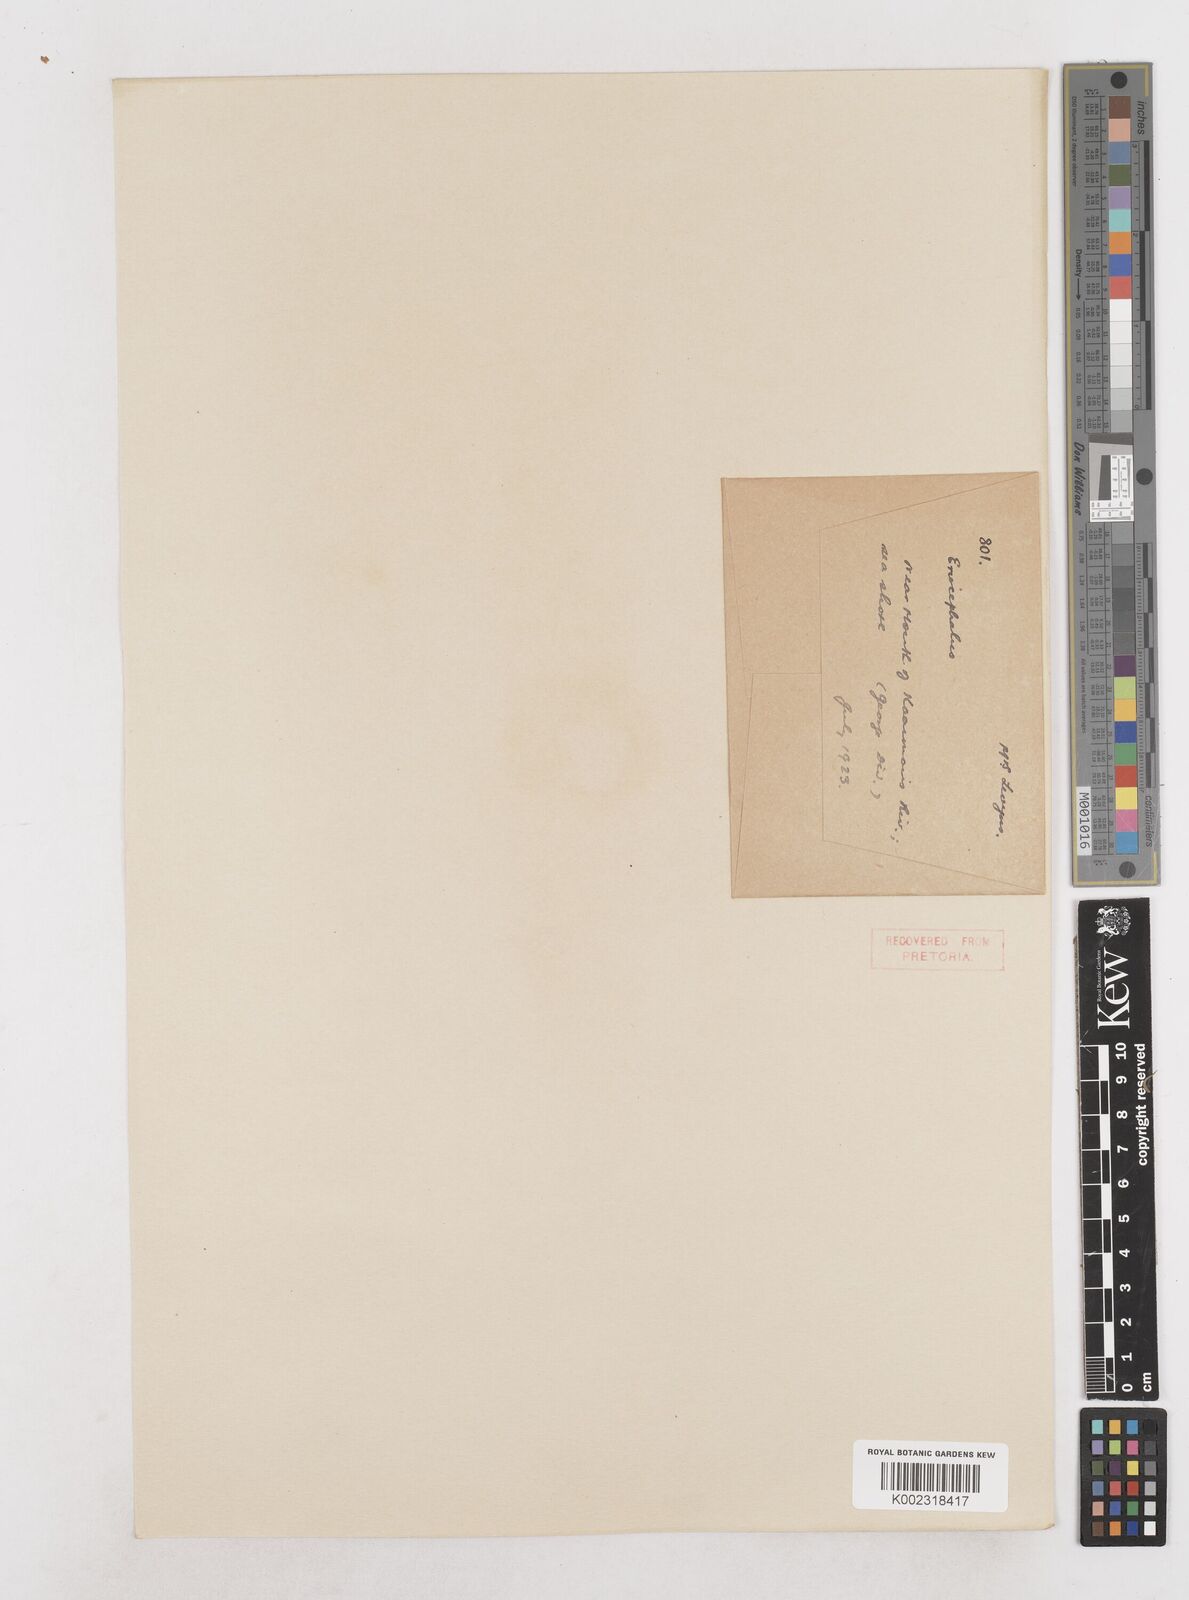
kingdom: Plantae
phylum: Tracheophyta
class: Magnoliopsida
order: Asterales
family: Asteraceae
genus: Eriocephalus
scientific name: Eriocephalus
